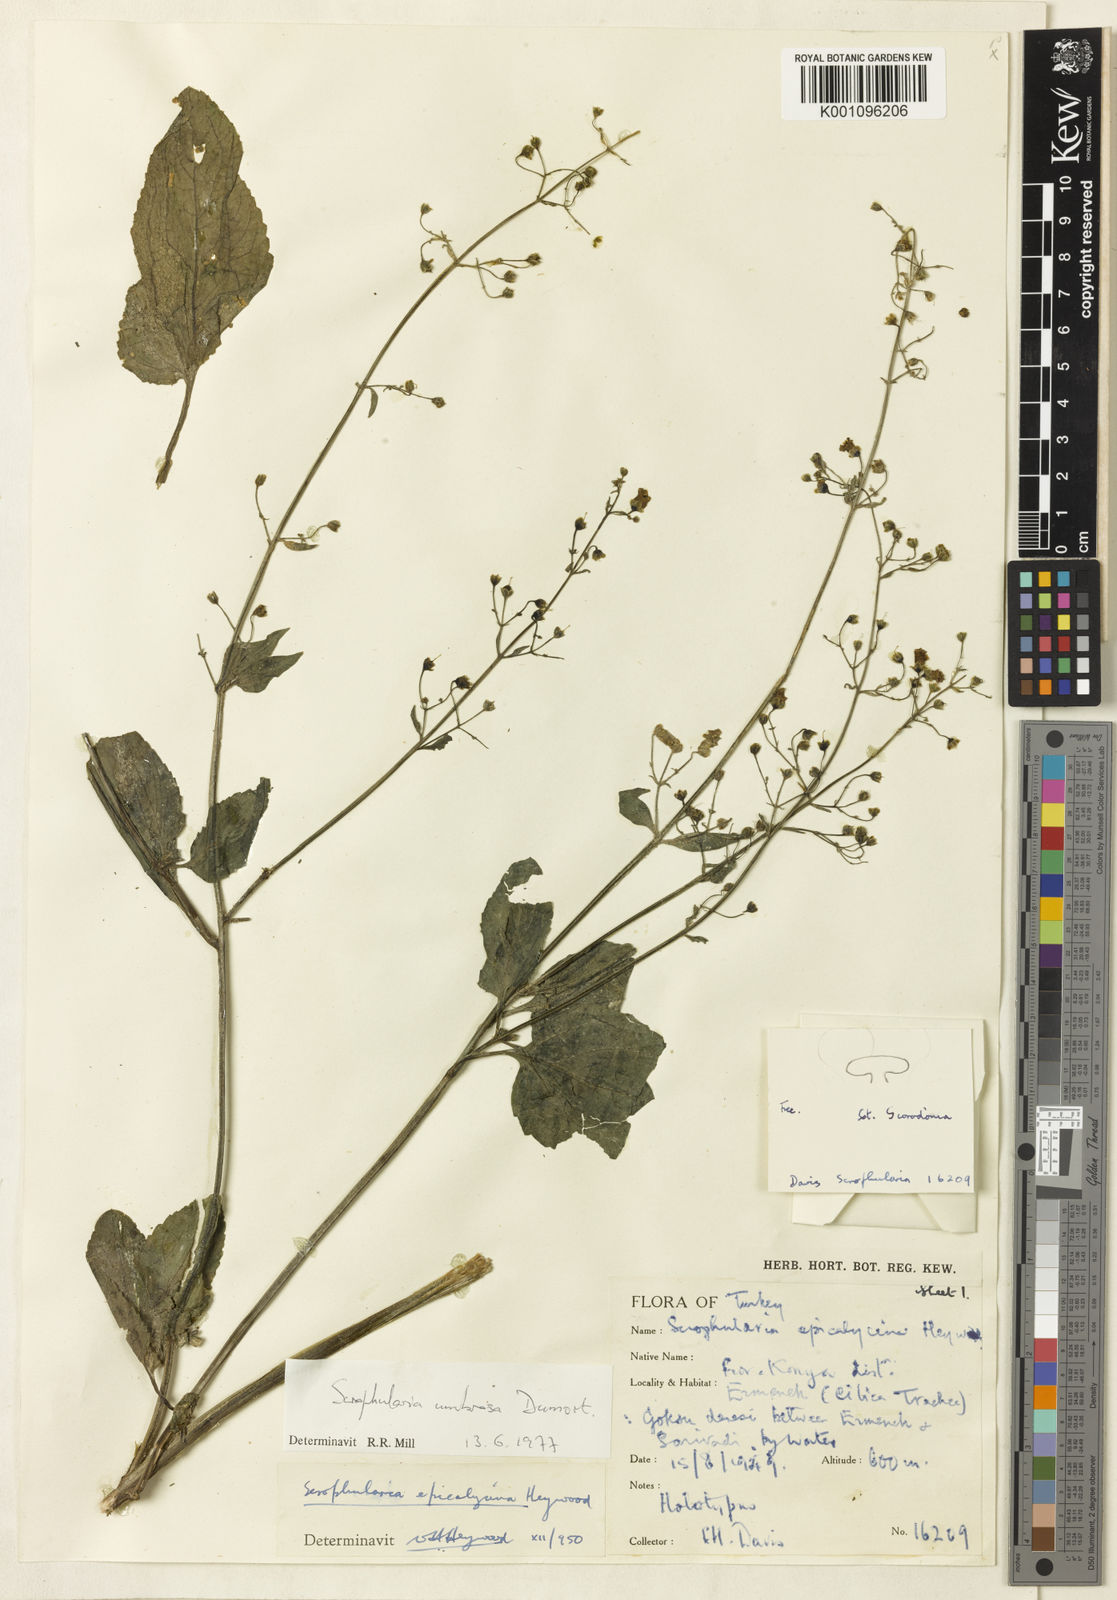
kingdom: Plantae
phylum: Tracheophyta
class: Magnoliopsida
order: Lamiales
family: Scrophulariaceae
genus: Scrophularia
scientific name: Scrophularia alata
